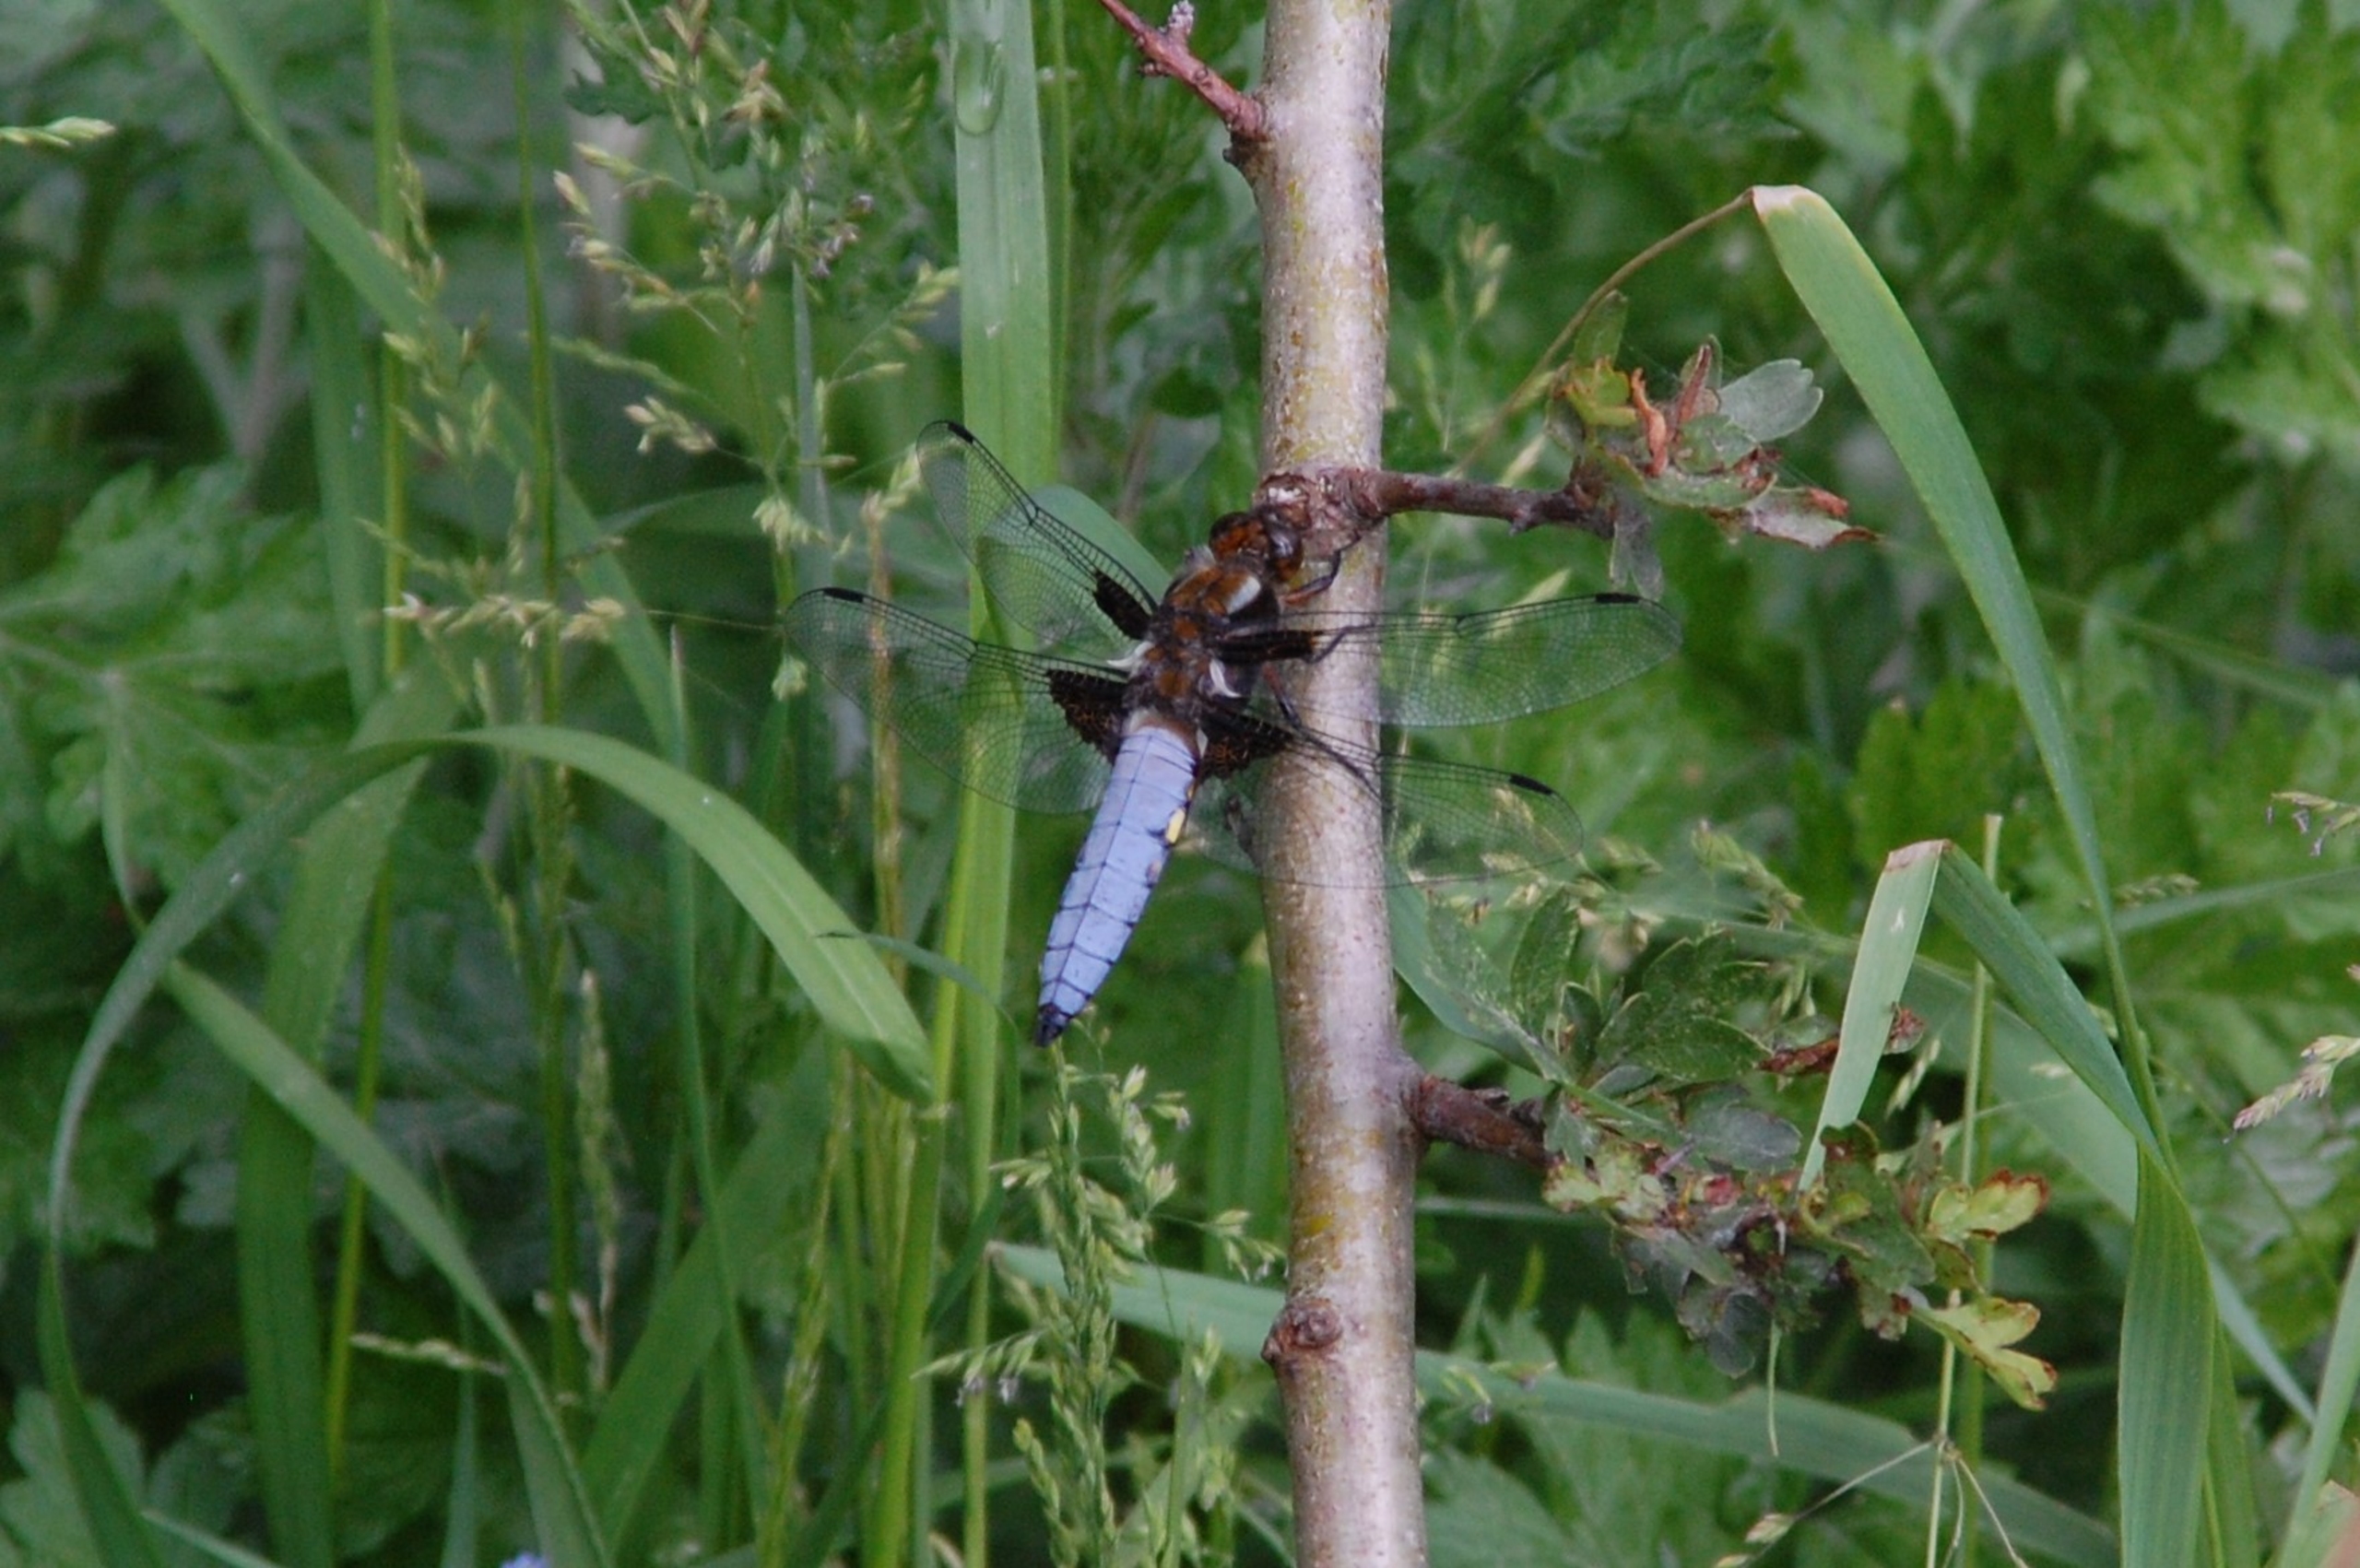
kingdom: Animalia
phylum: Arthropoda
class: Insecta
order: Odonata
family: Libellulidae
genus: Libellula
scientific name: Libellula depressa
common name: Blå libel
